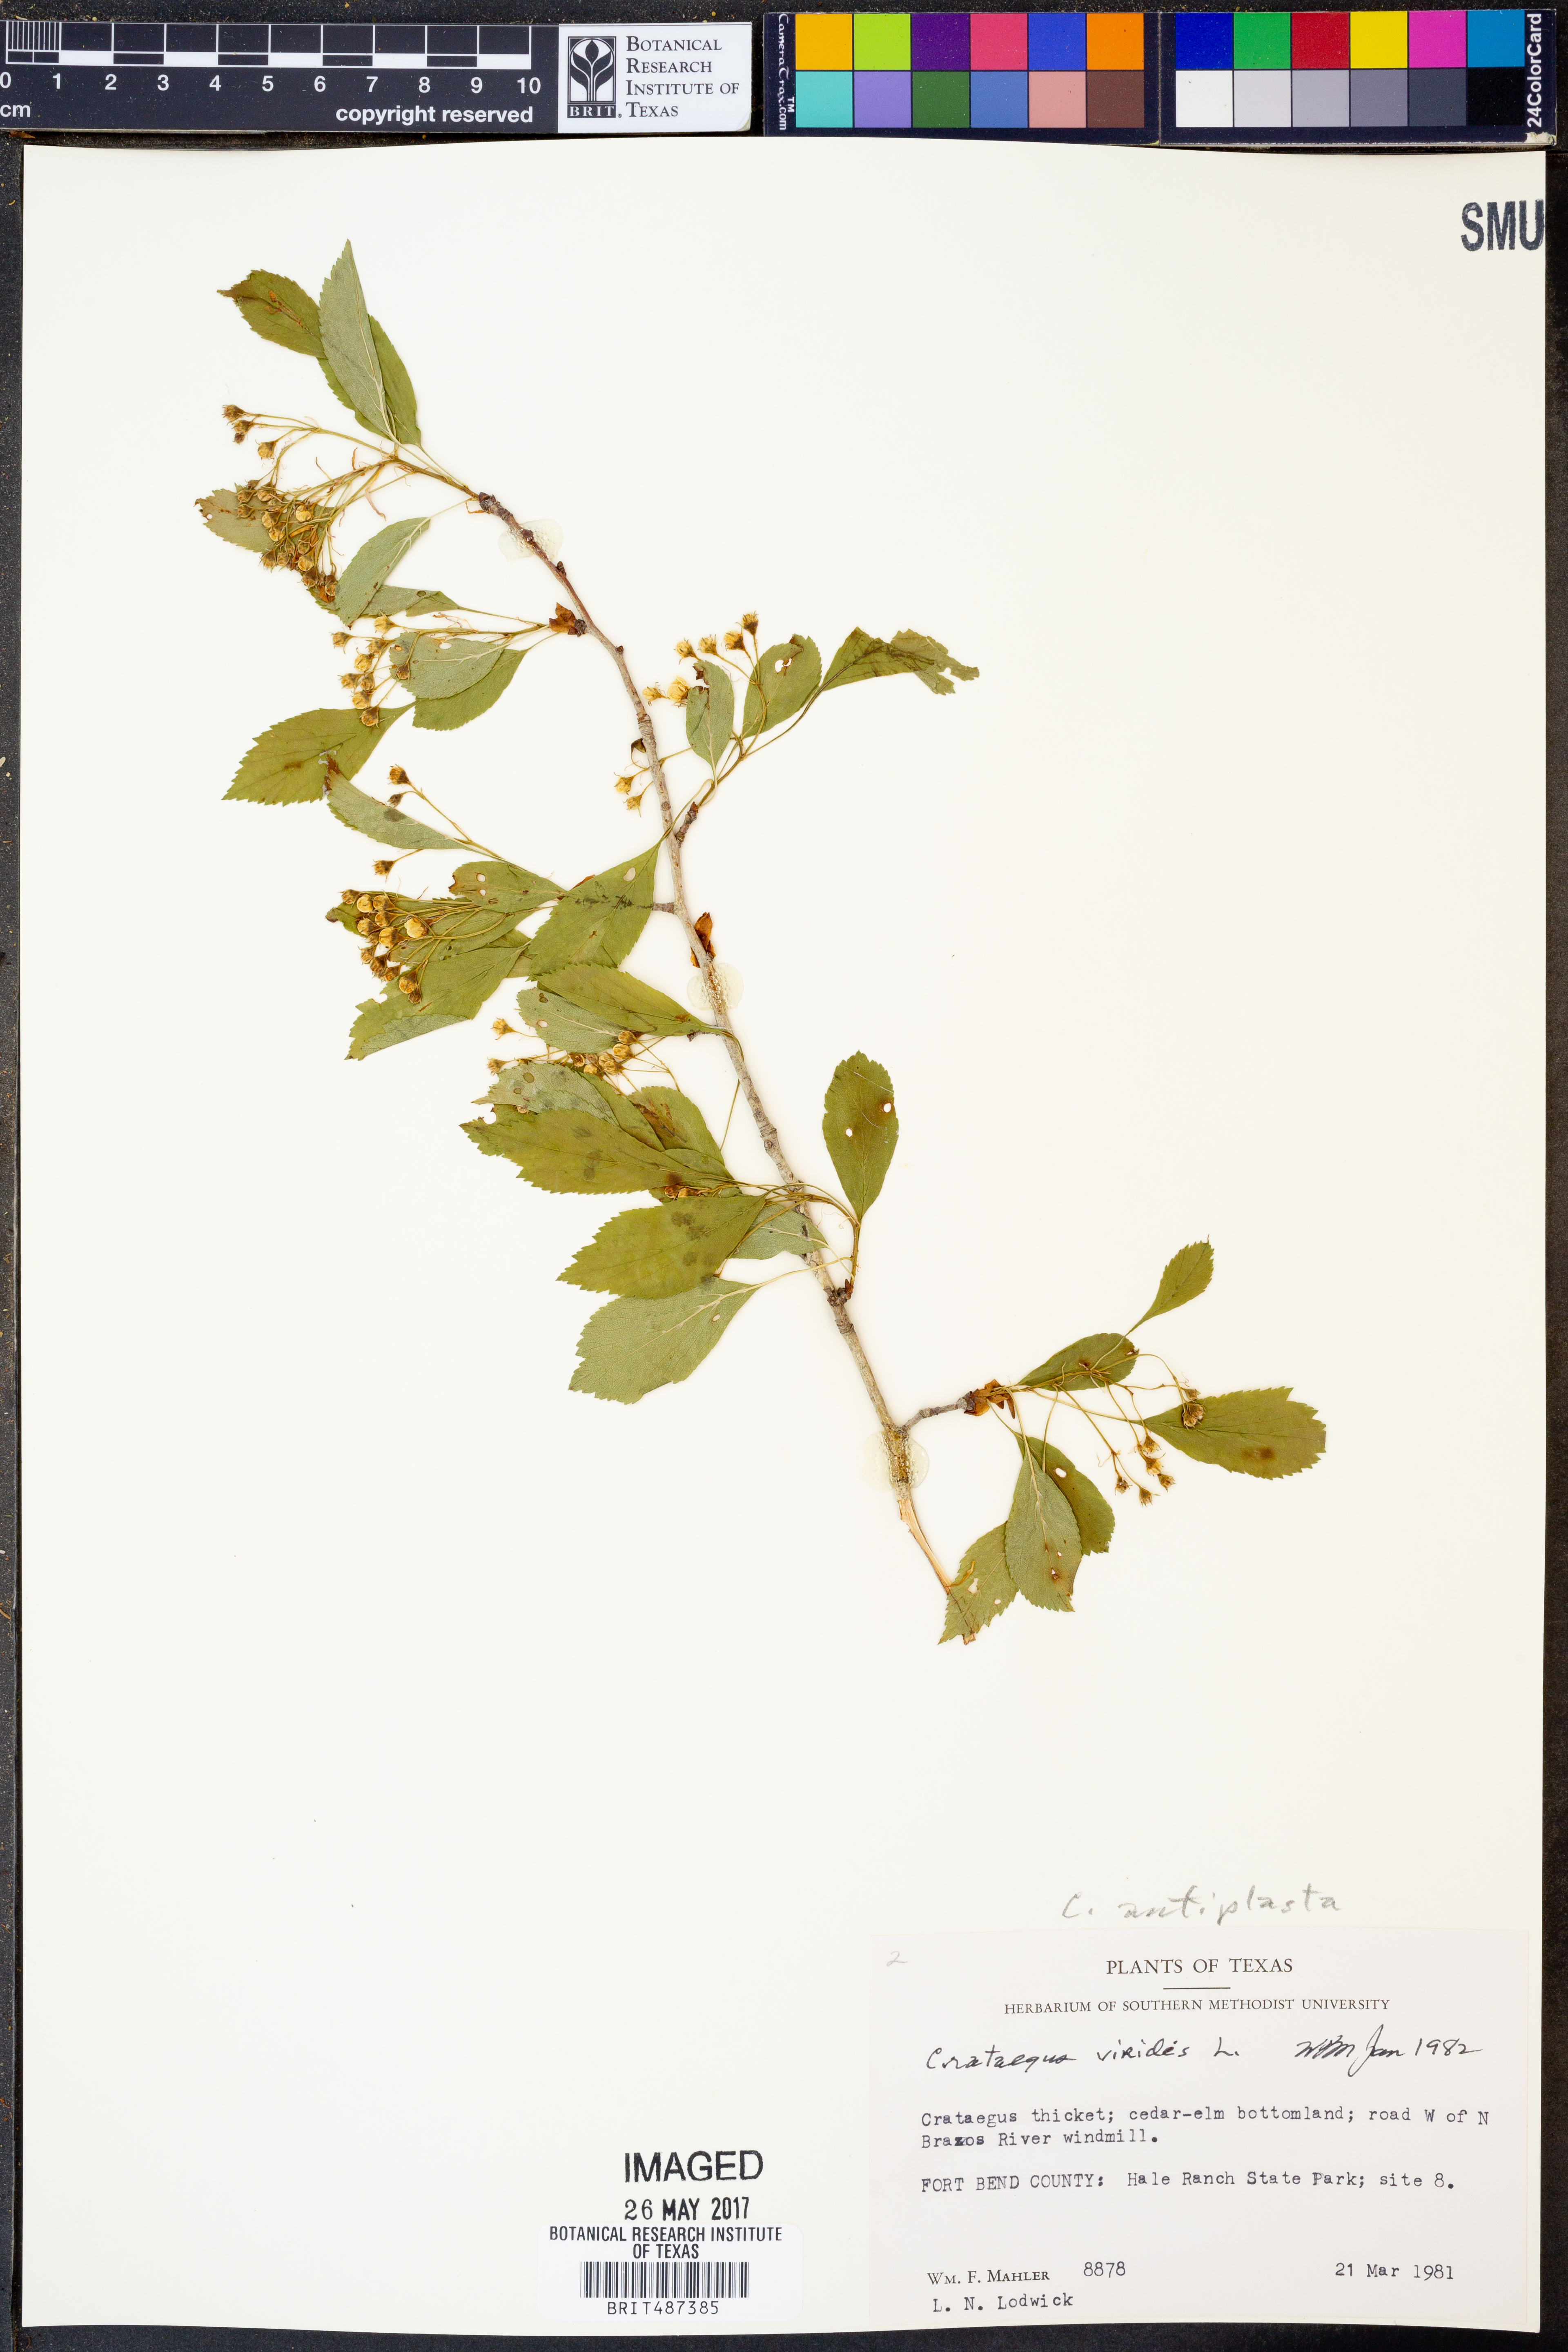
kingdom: Plantae
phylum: Tracheophyta
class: Magnoliopsida
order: Rosales
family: Rosaceae
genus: Crataegus
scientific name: Crataegus viridis
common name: Southernthorn
